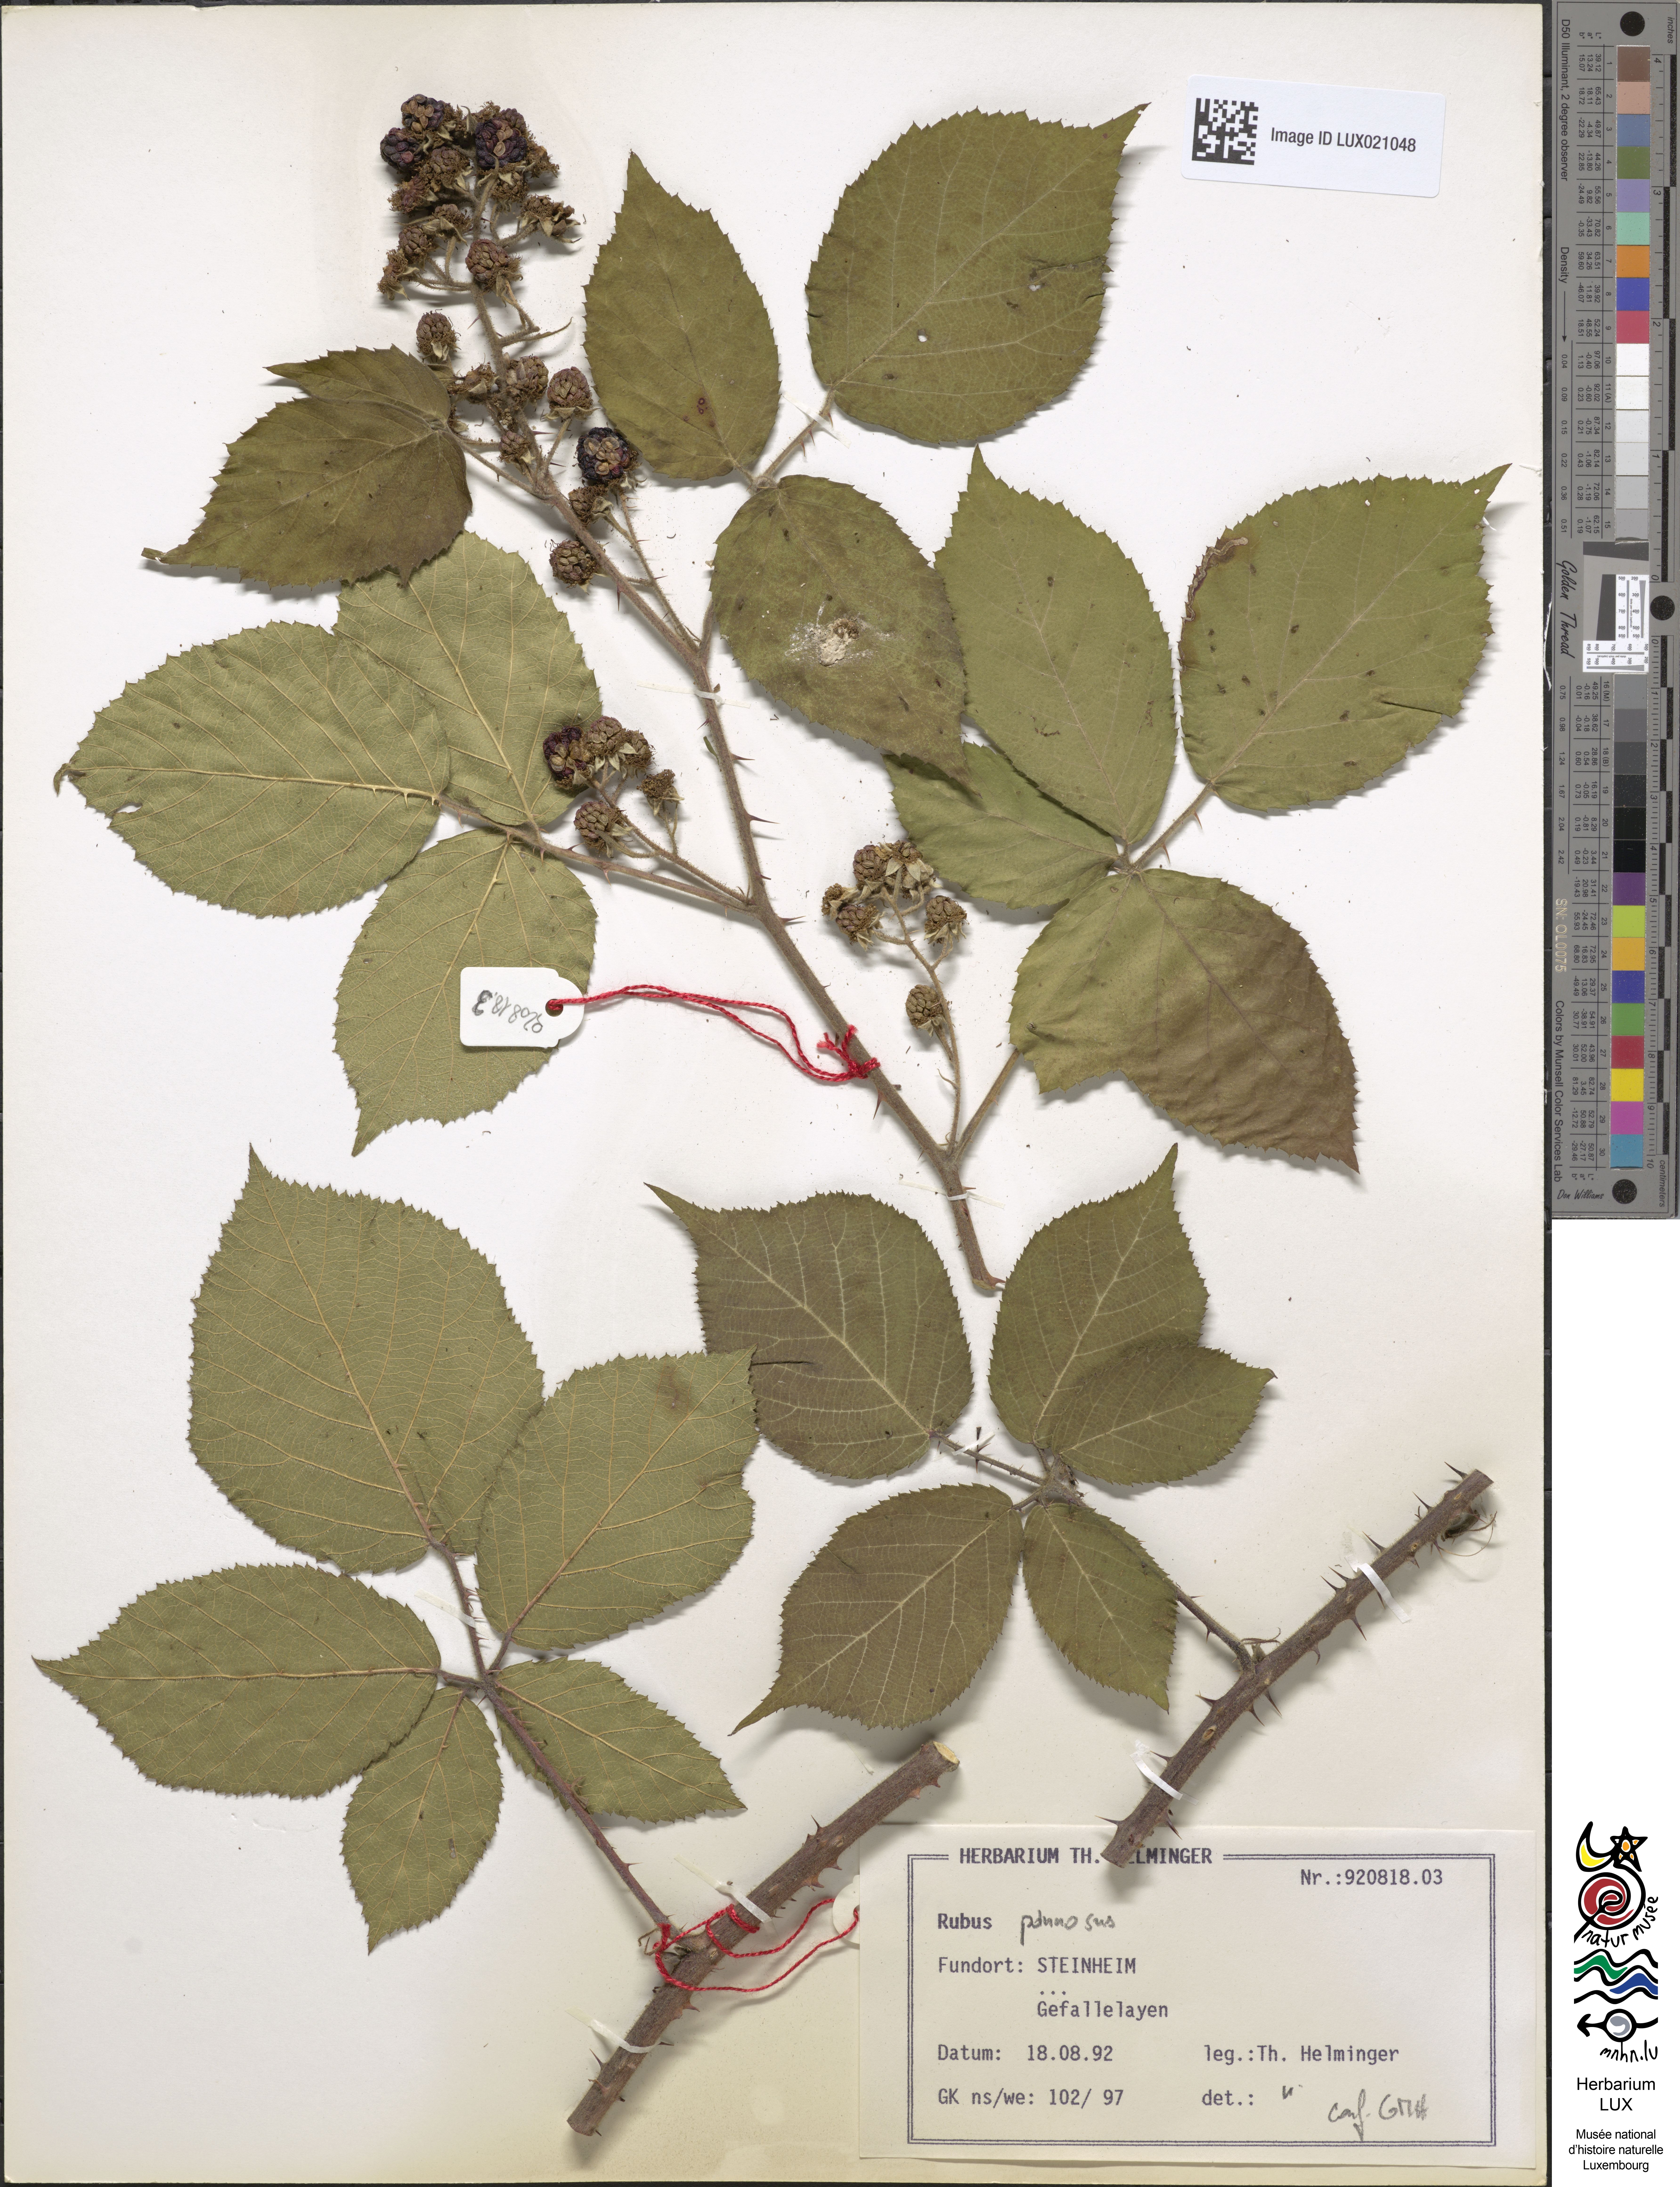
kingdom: Plantae
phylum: Tracheophyta
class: Magnoliopsida
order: Rosales
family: Rosaceae
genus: Rubus
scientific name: Rubus pannosus
